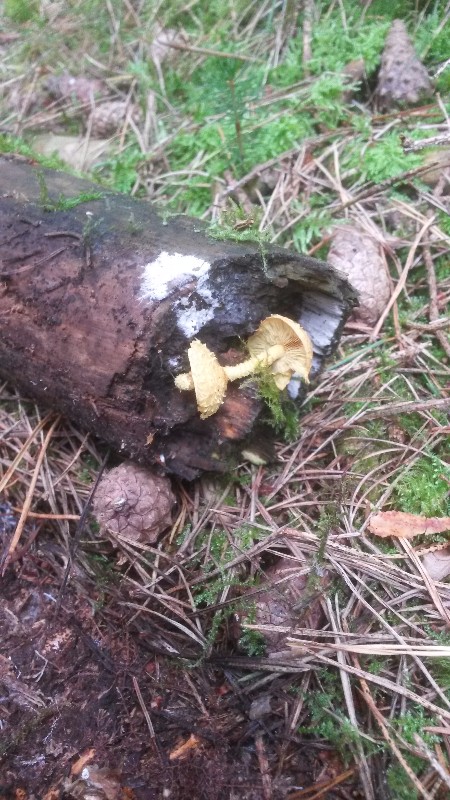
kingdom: Fungi
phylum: Basidiomycota
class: Agaricomycetes
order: Agaricales
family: Strophariaceae
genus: Pholiota
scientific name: Pholiota flammans
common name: flamme-skælhat
